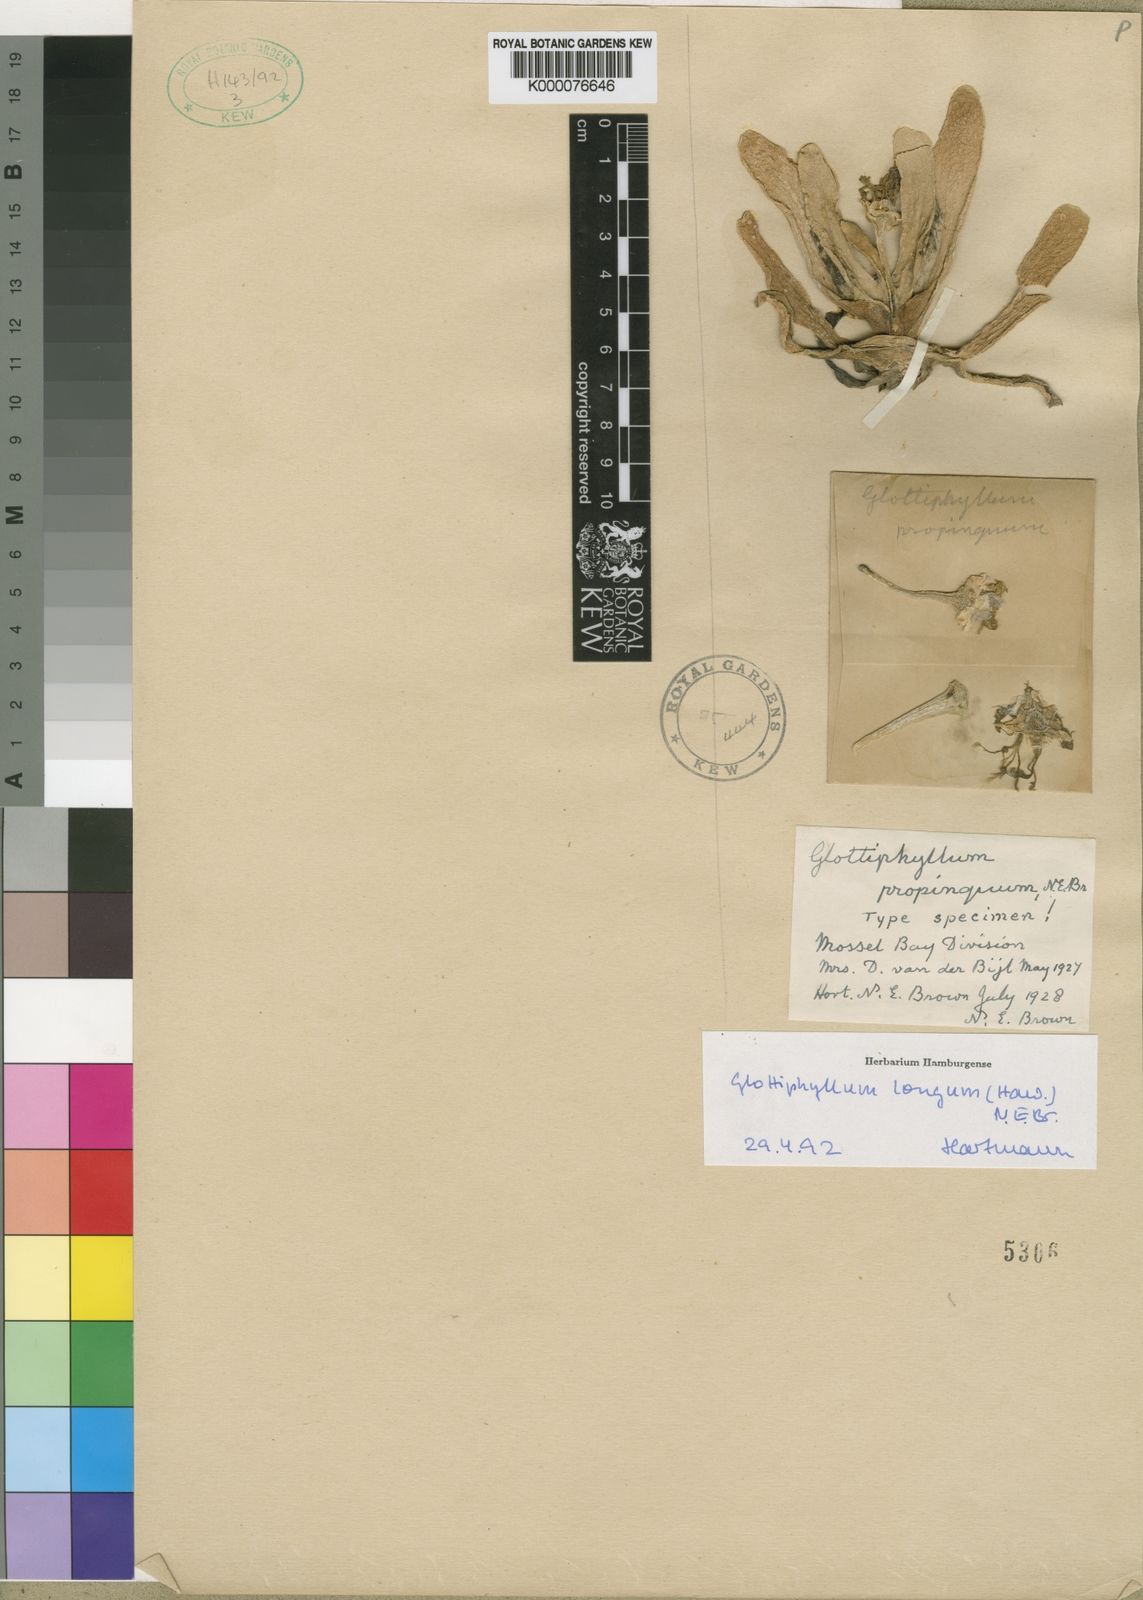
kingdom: Plantae
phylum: Tracheophyta
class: Magnoliopsida
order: Caryophyllales
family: Aizoaceae
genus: Glottiphyllum
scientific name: Glottiphyllum longum
